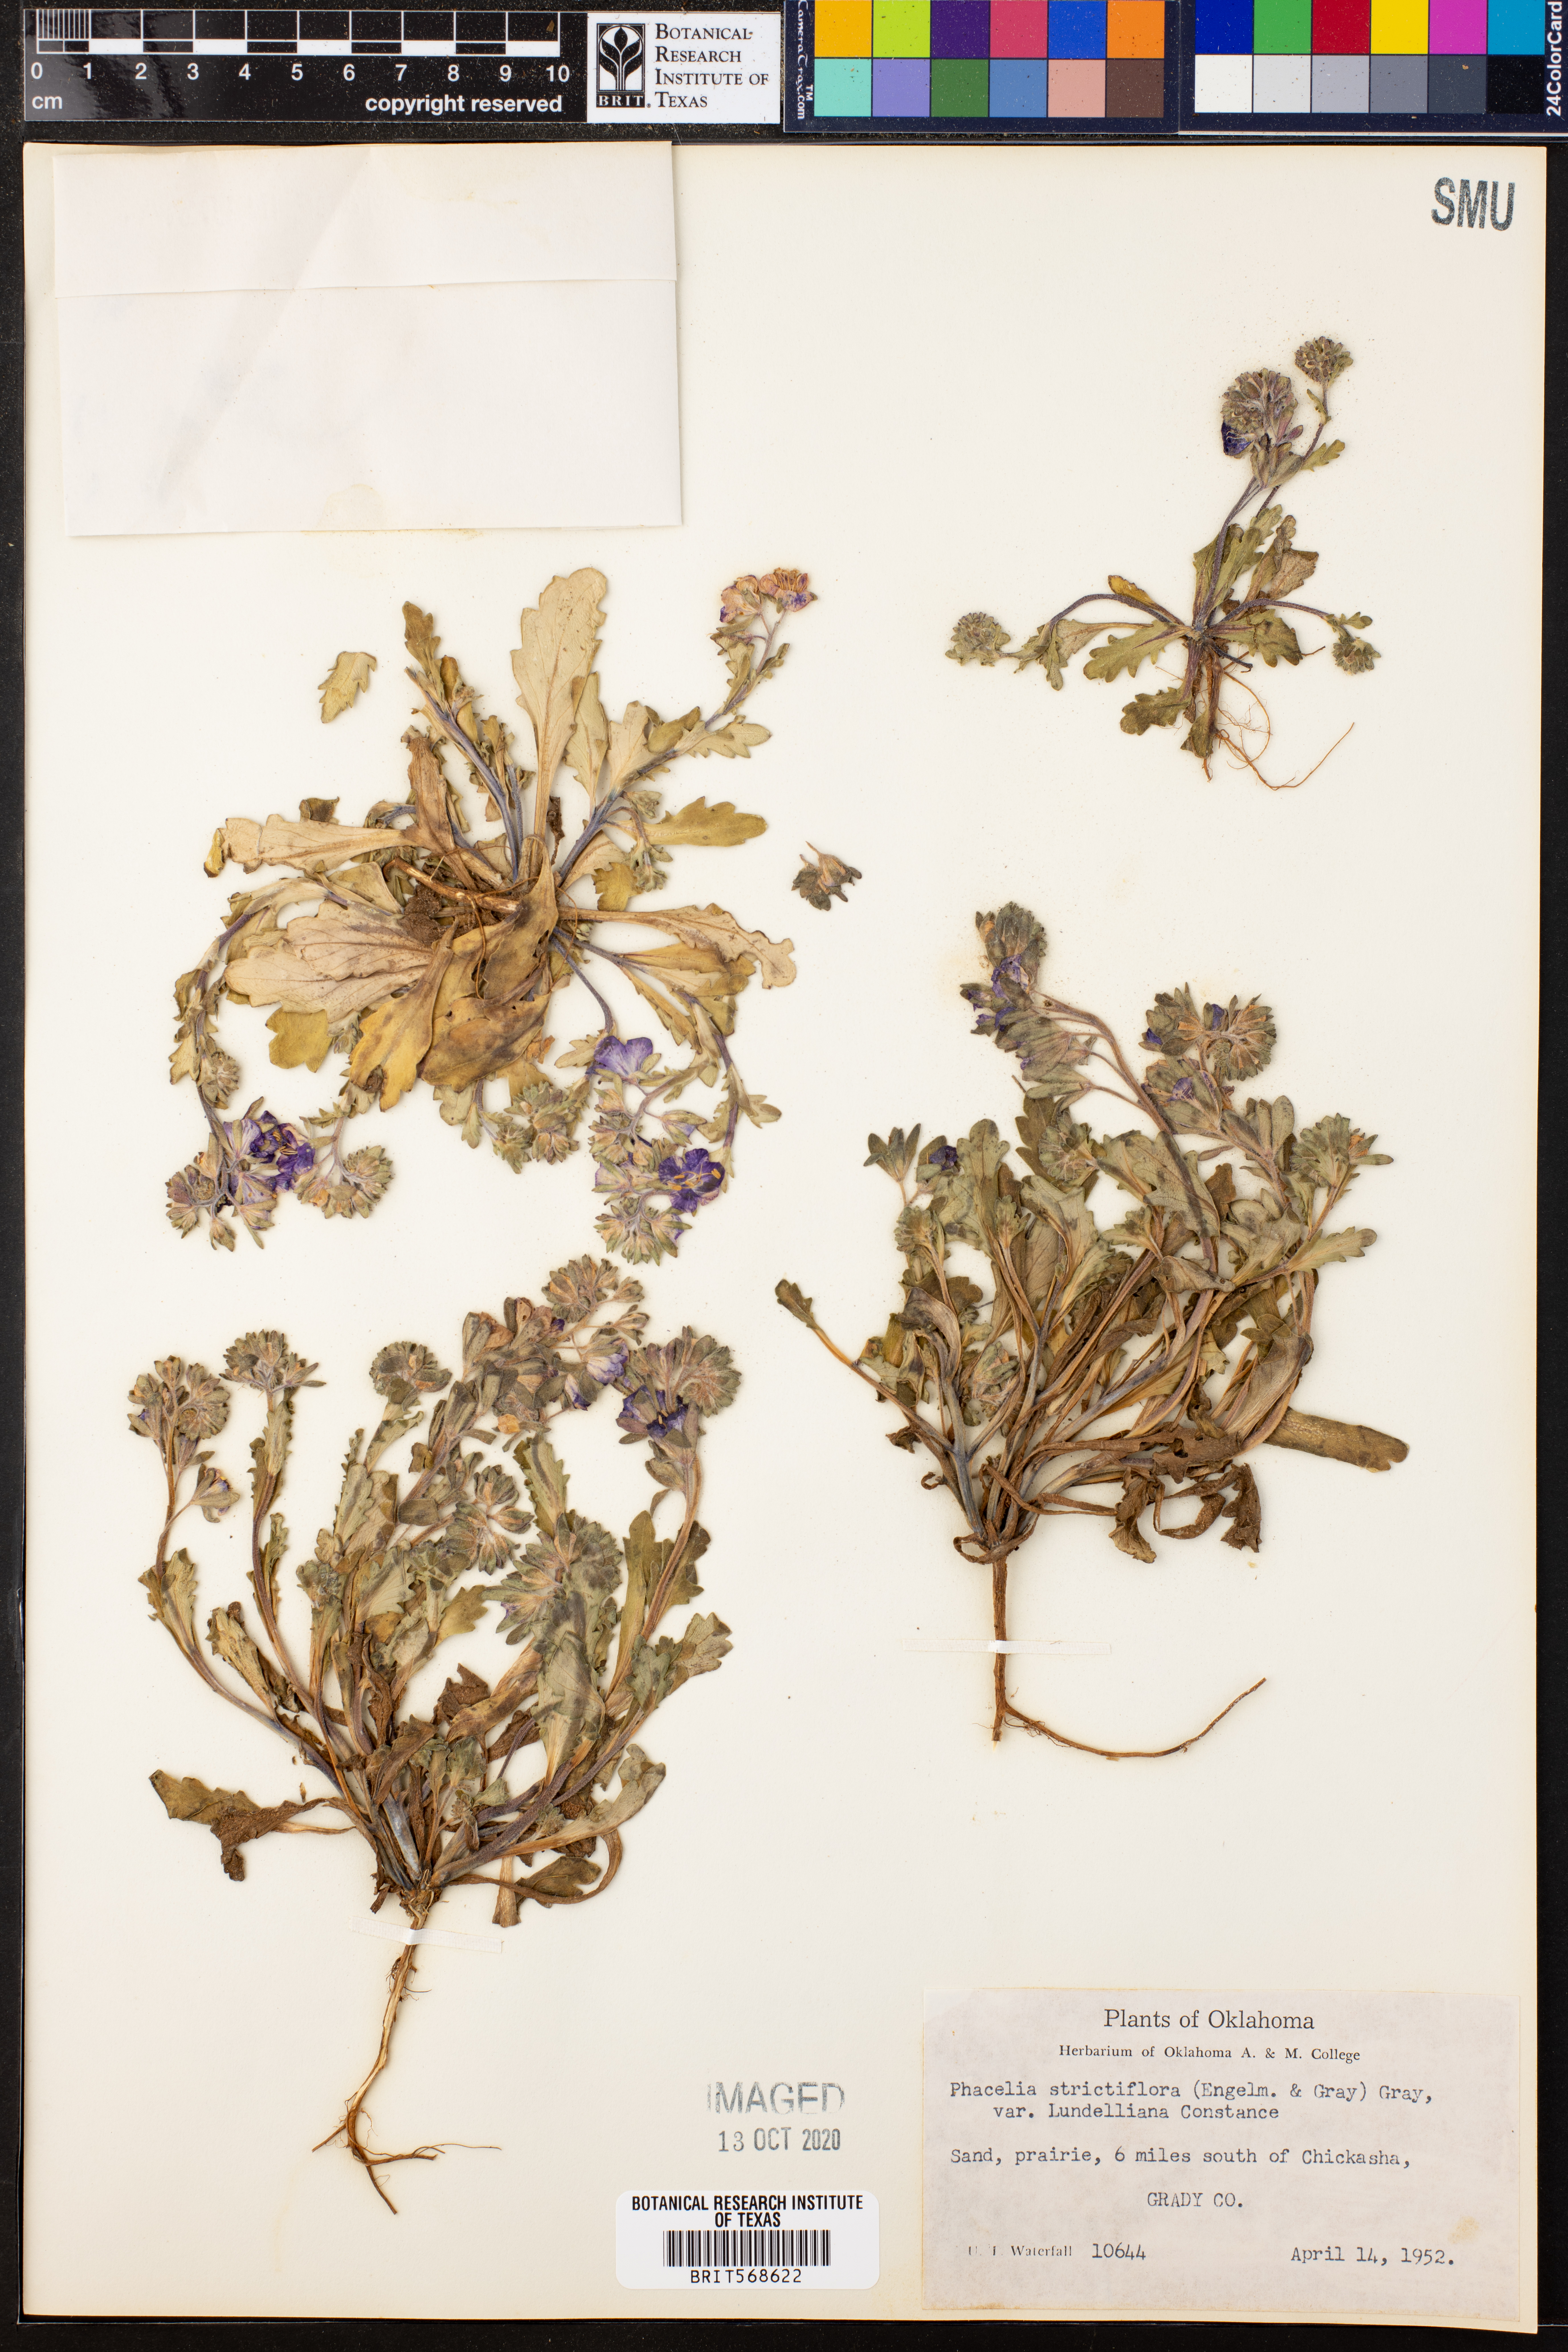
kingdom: Plantae
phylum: Tracheophyta
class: Magnoliopsida
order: Boraginales
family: Hydrophyllaceae
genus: Phacelia
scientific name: Phacelia strictiflora
